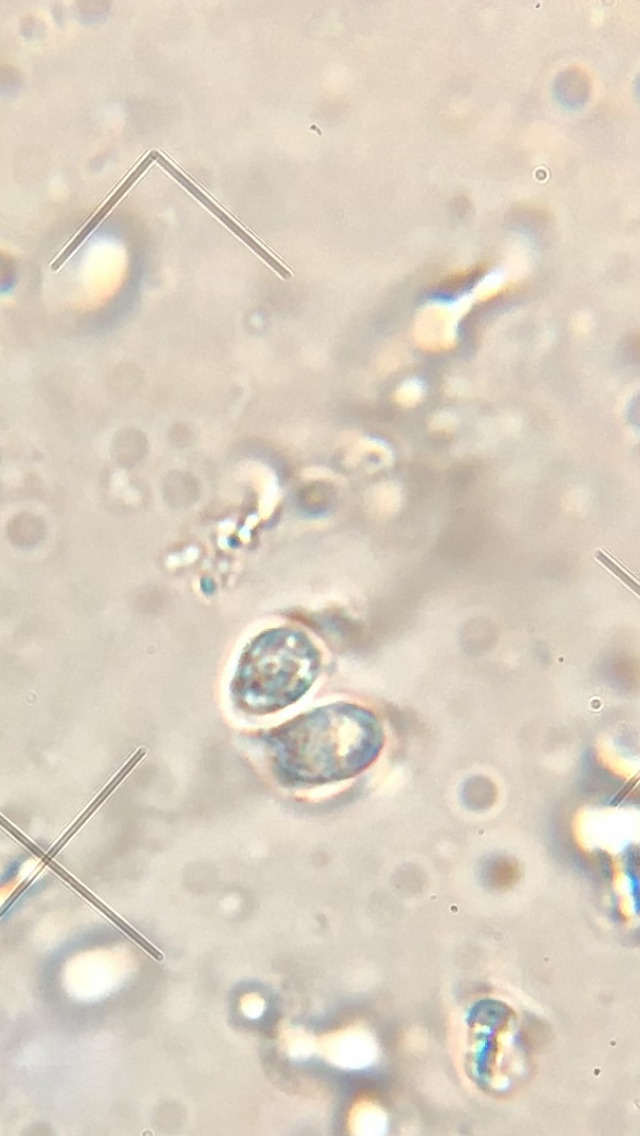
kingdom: Fungi
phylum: Basidiomycota
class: Agaricomycetes
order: Agaricales
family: Hygrophoraceae
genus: Hygrocybe
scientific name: Hygrocybe
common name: vokshat
